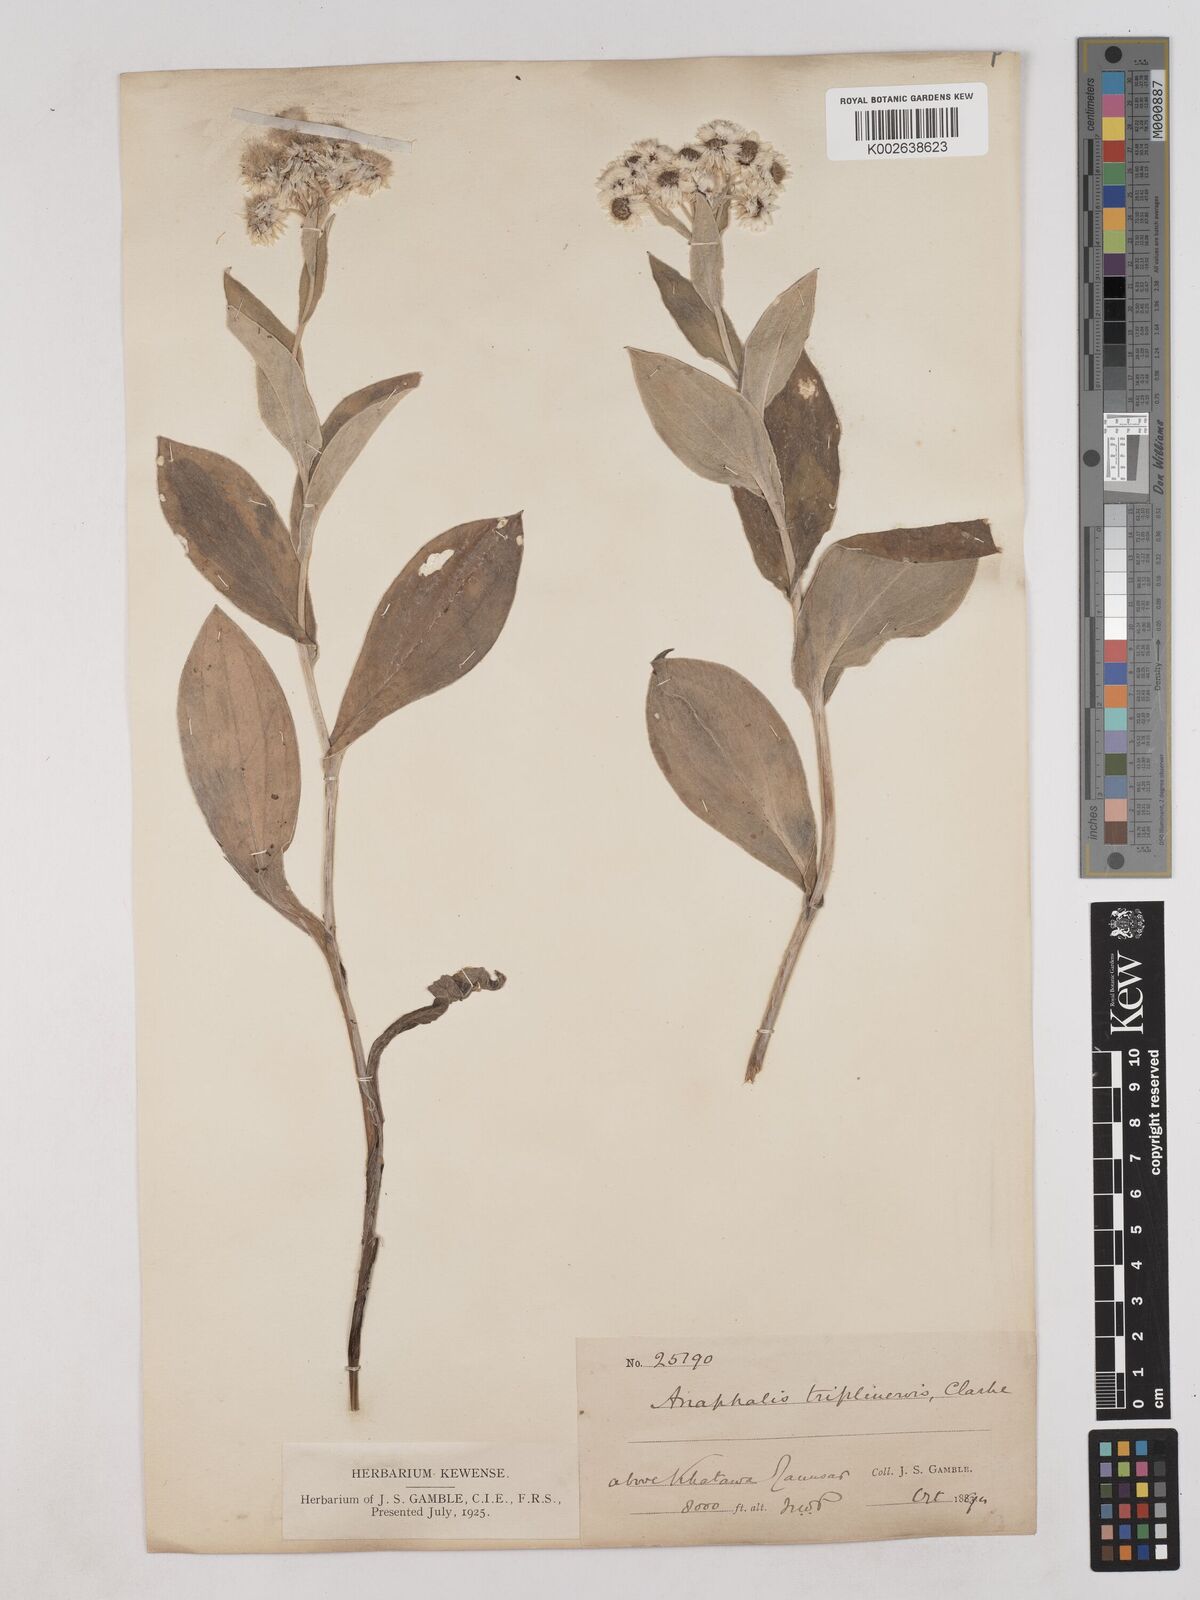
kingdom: Plantae
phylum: Tracheophyta
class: Magnoliopsida
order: Asterales
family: Asteraceae
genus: Anaphalis
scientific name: Anaphalis triplinervis
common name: Pearly everlasting
